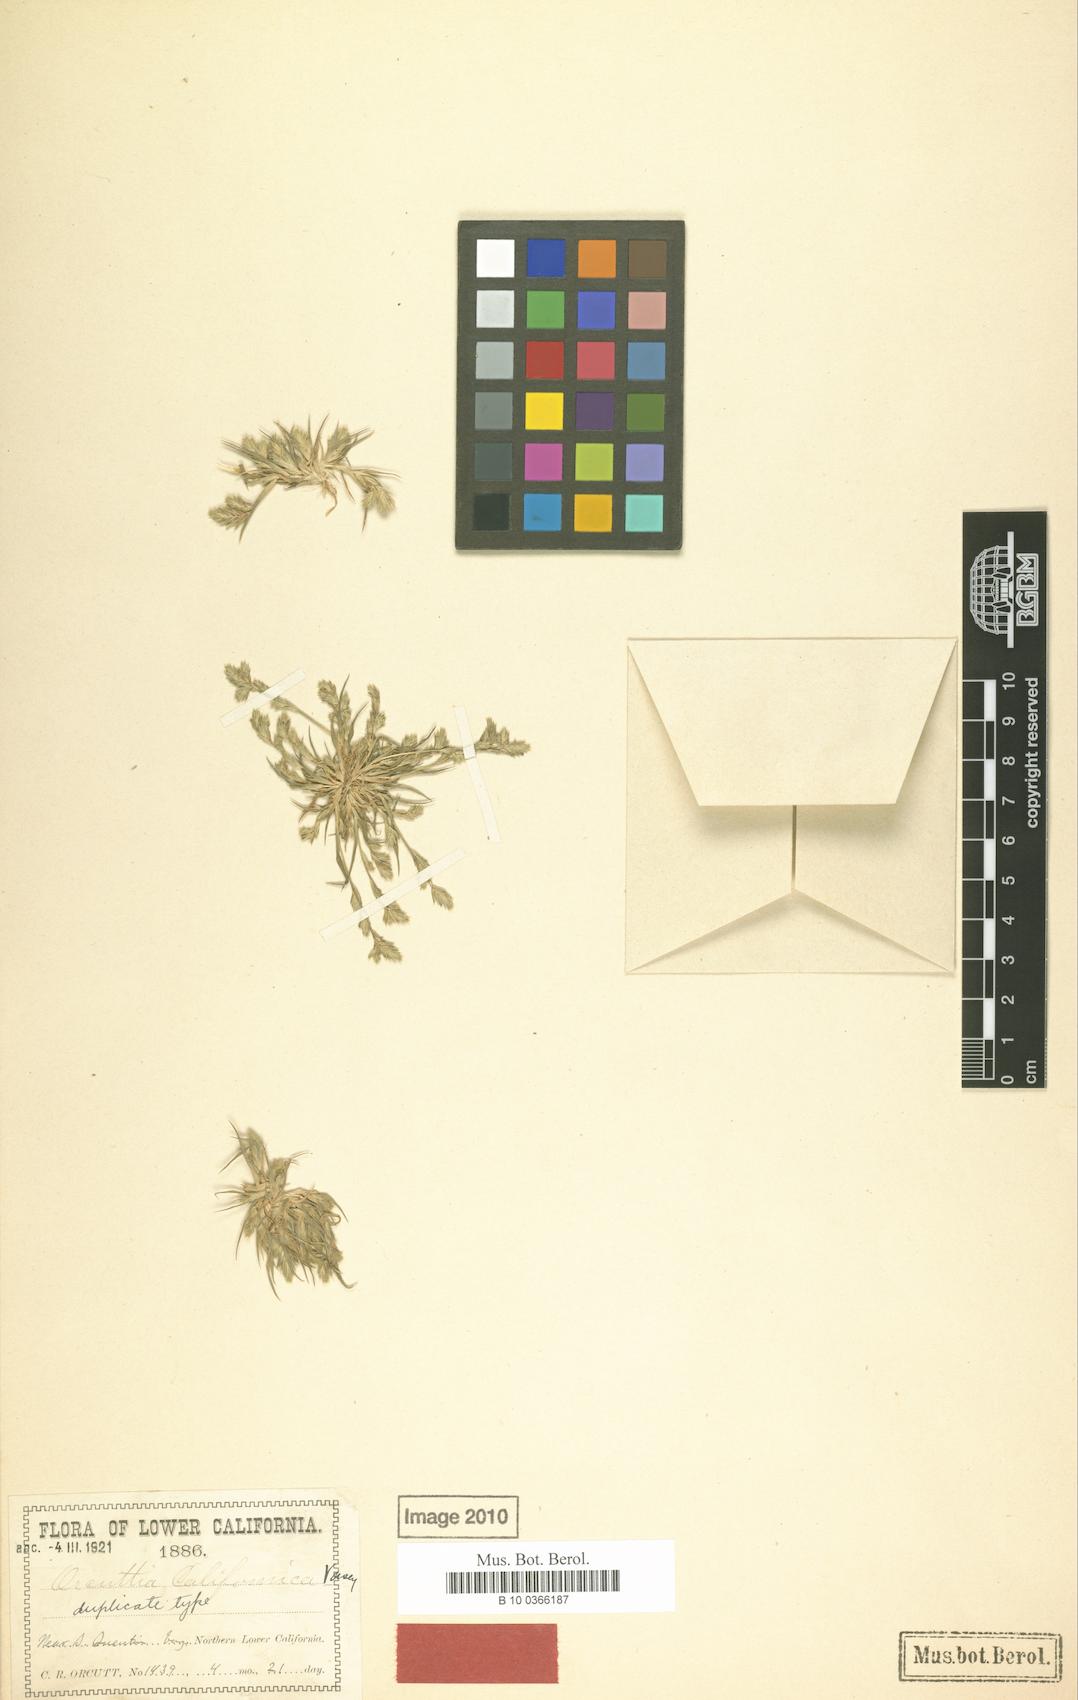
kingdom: Plantae
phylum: Tracheophyta
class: Liliopsida
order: Poales
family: Poaceae
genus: Orcuttia
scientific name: Orcuttia californica
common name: California orcutt grass
